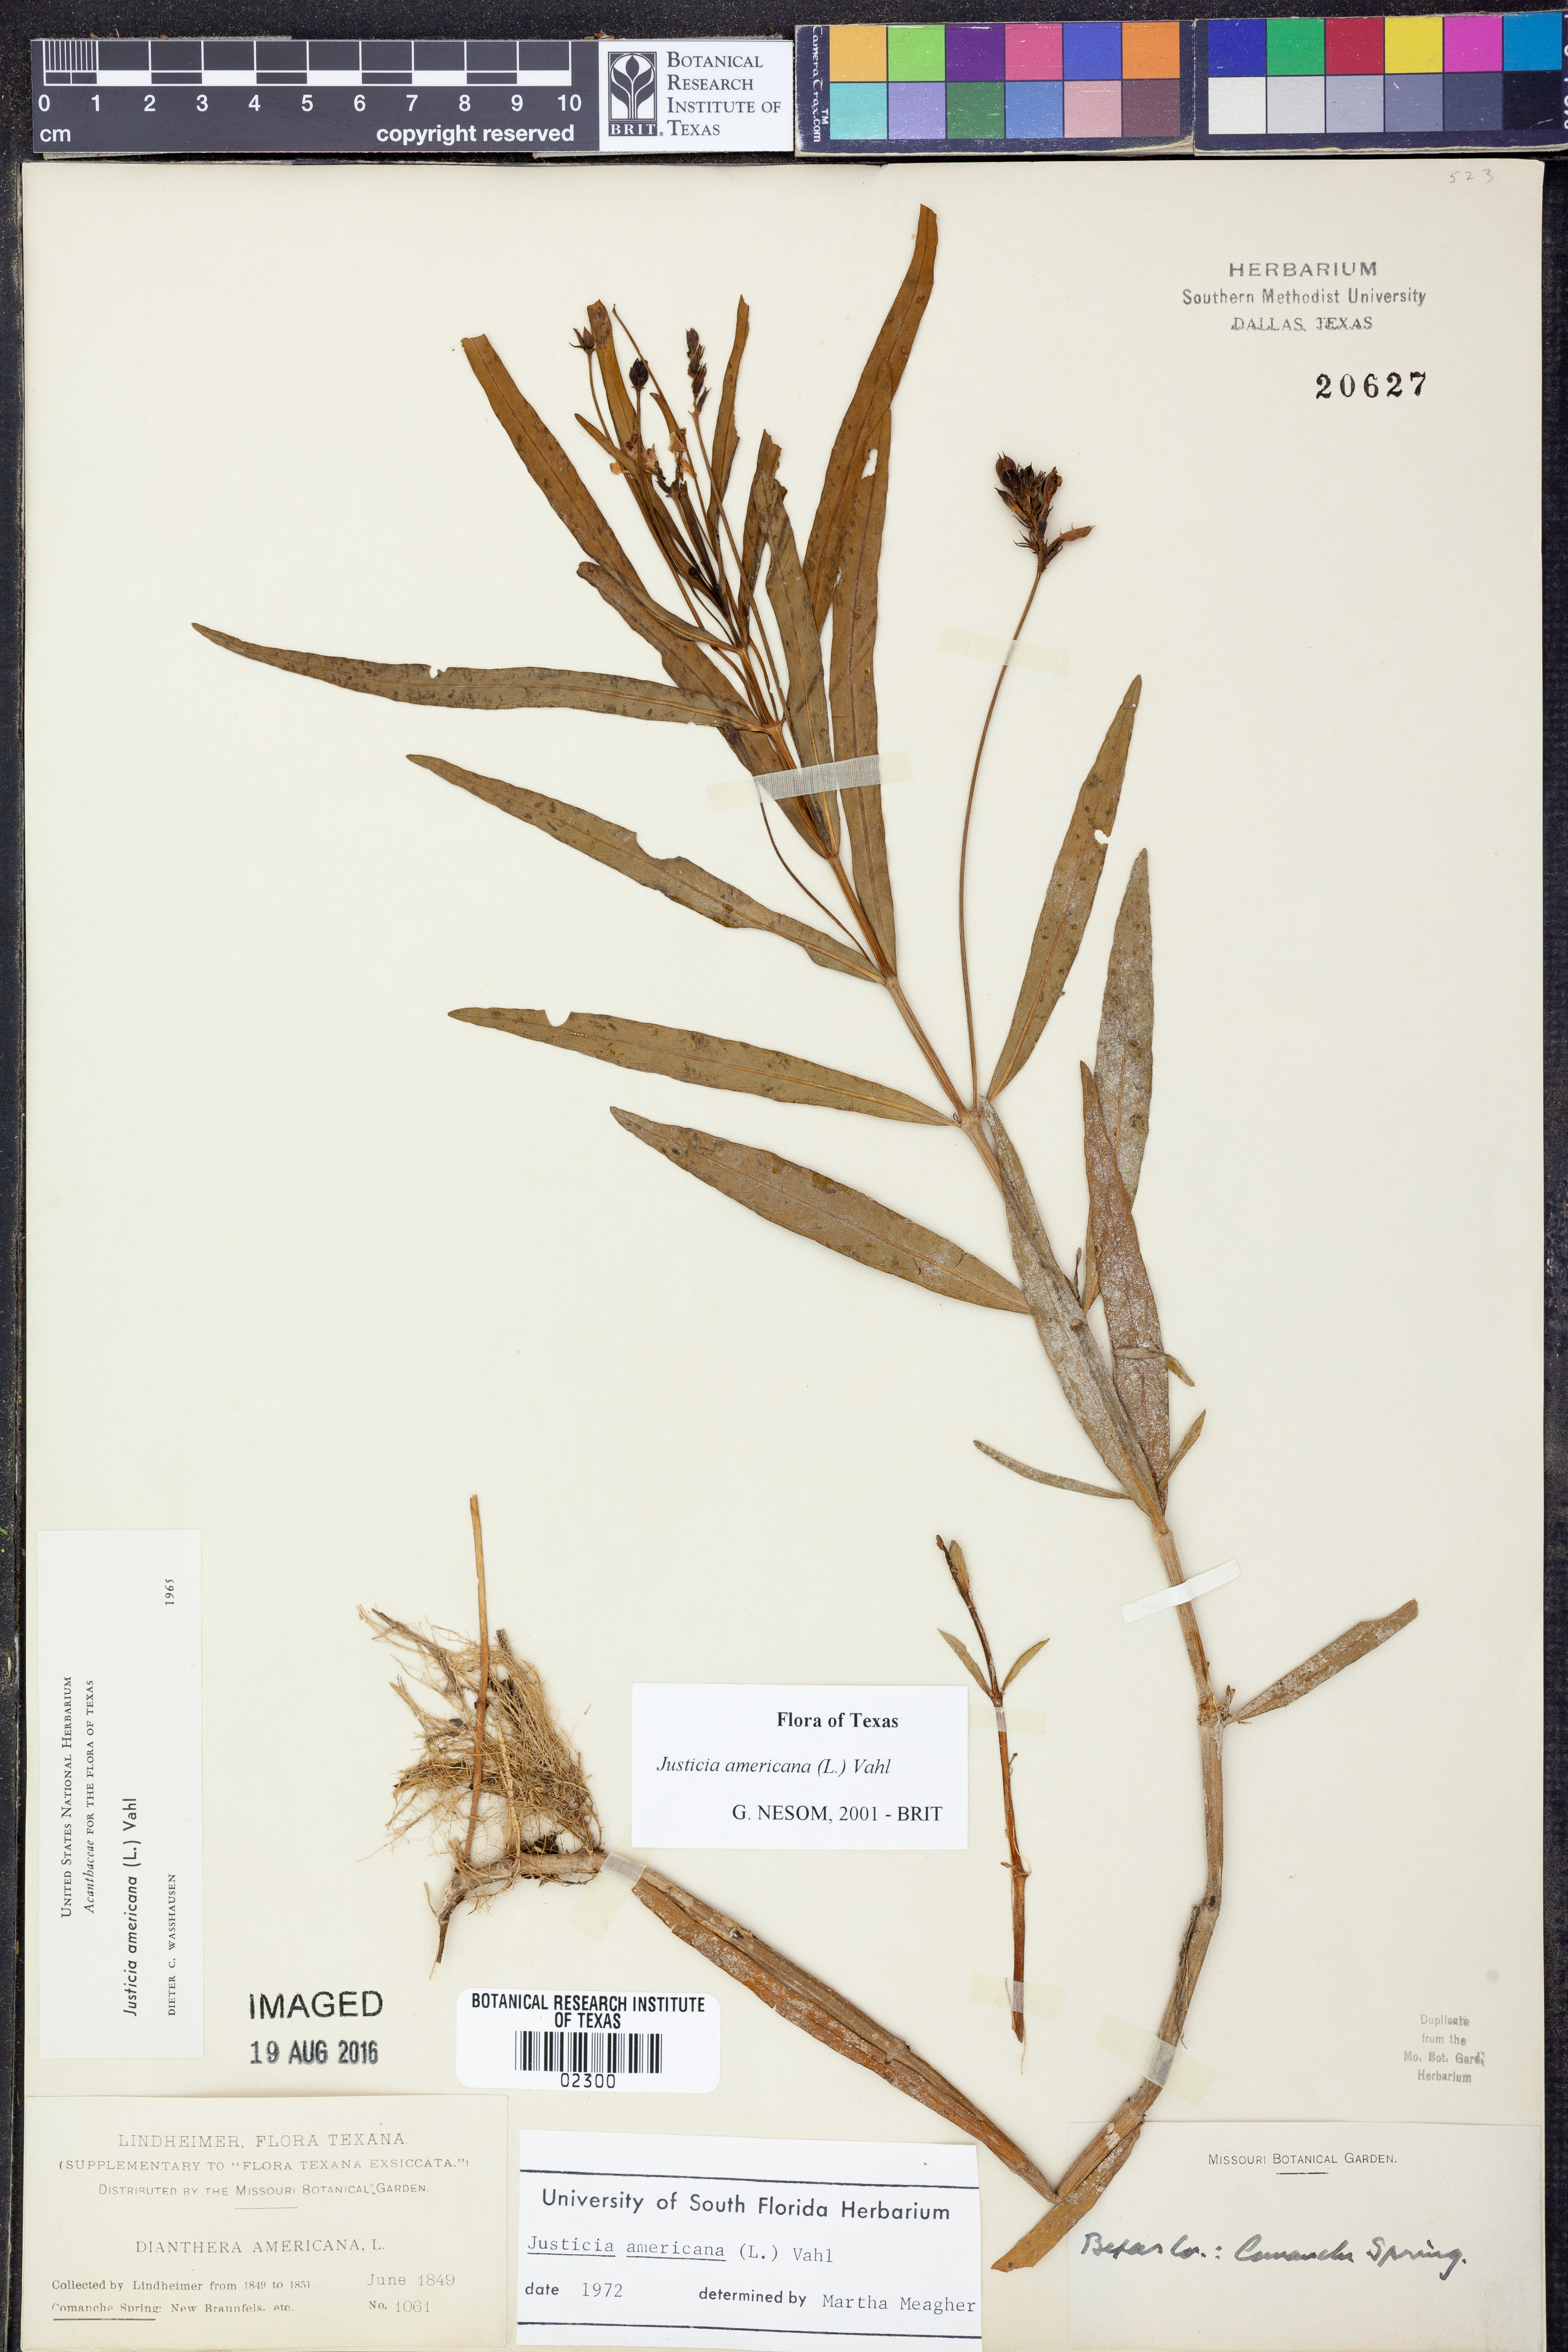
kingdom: Plantae
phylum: Tracheophyta
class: Magnoliopsida
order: Lamiales
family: Acanthaceae
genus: Dianthera
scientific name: Dianthera americana
